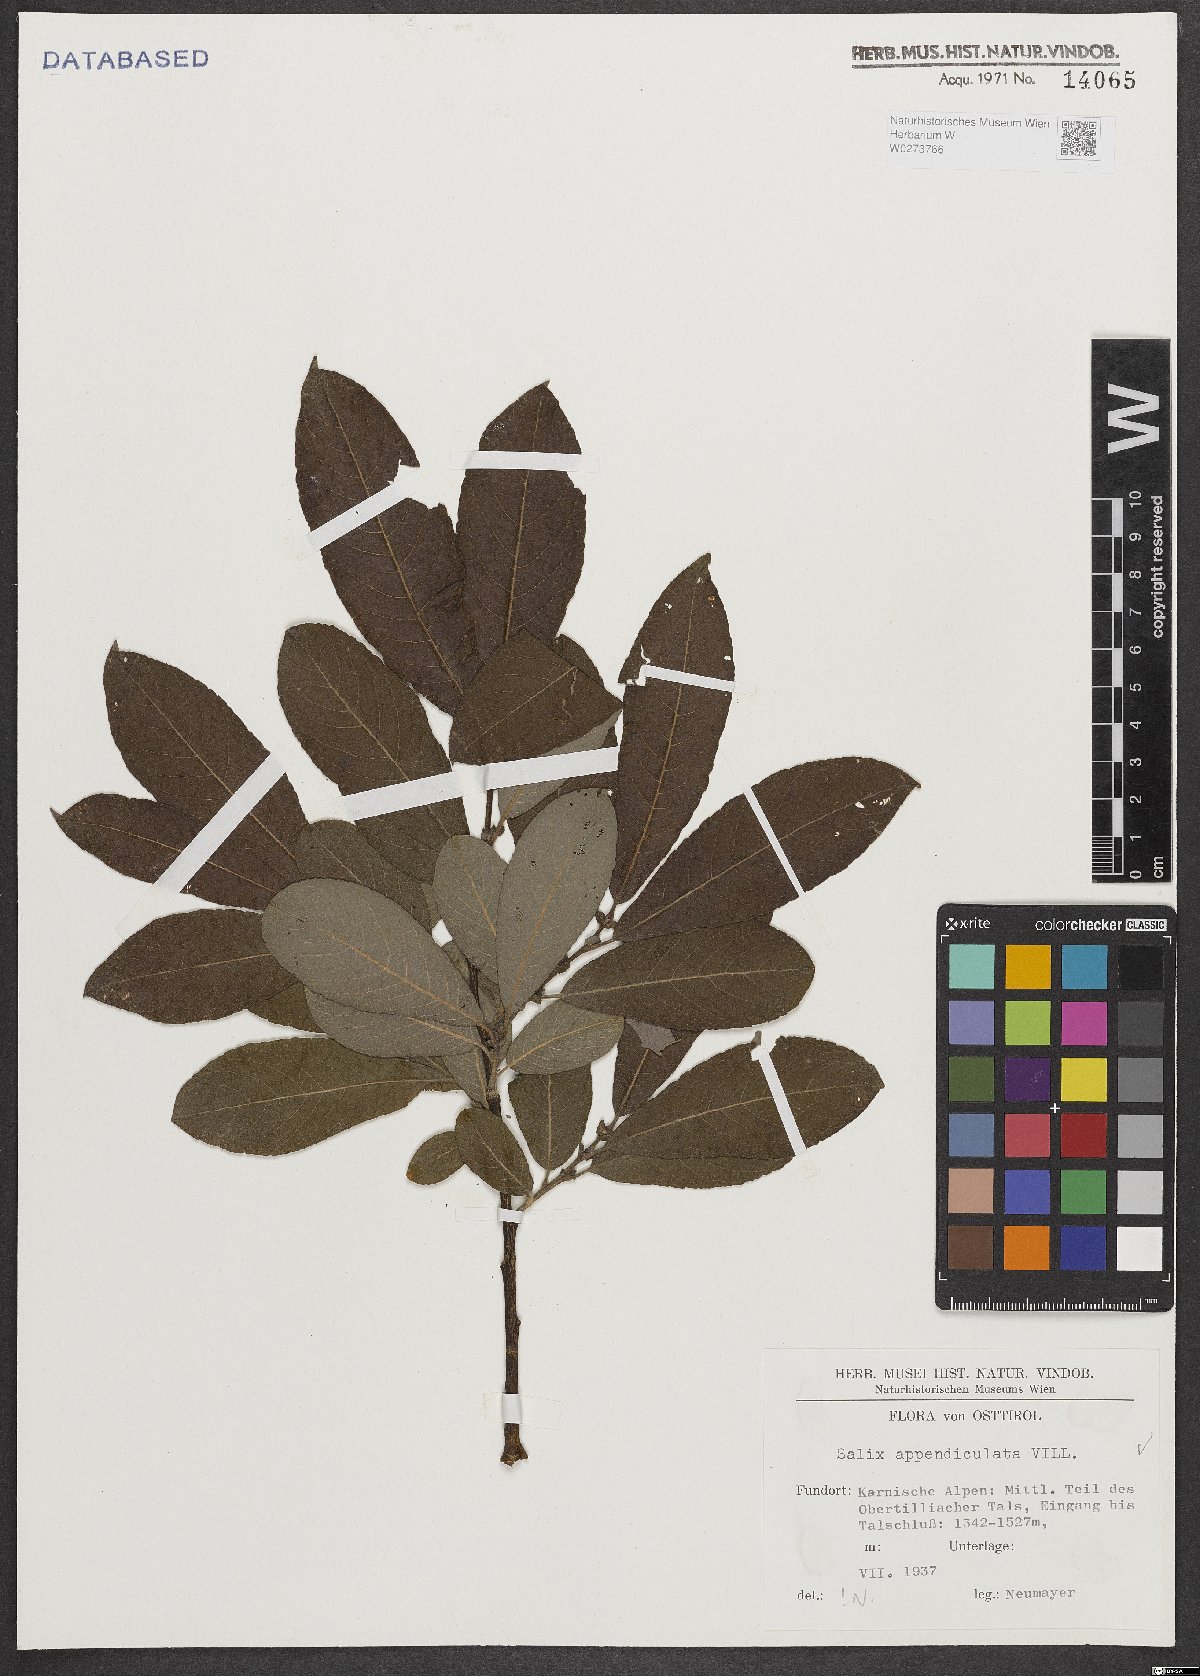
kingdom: Plantae
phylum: Tracheophyta
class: Magnoliopsida
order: Malpighiales
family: Salicaceae
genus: Salix
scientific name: Salix appendiculata
